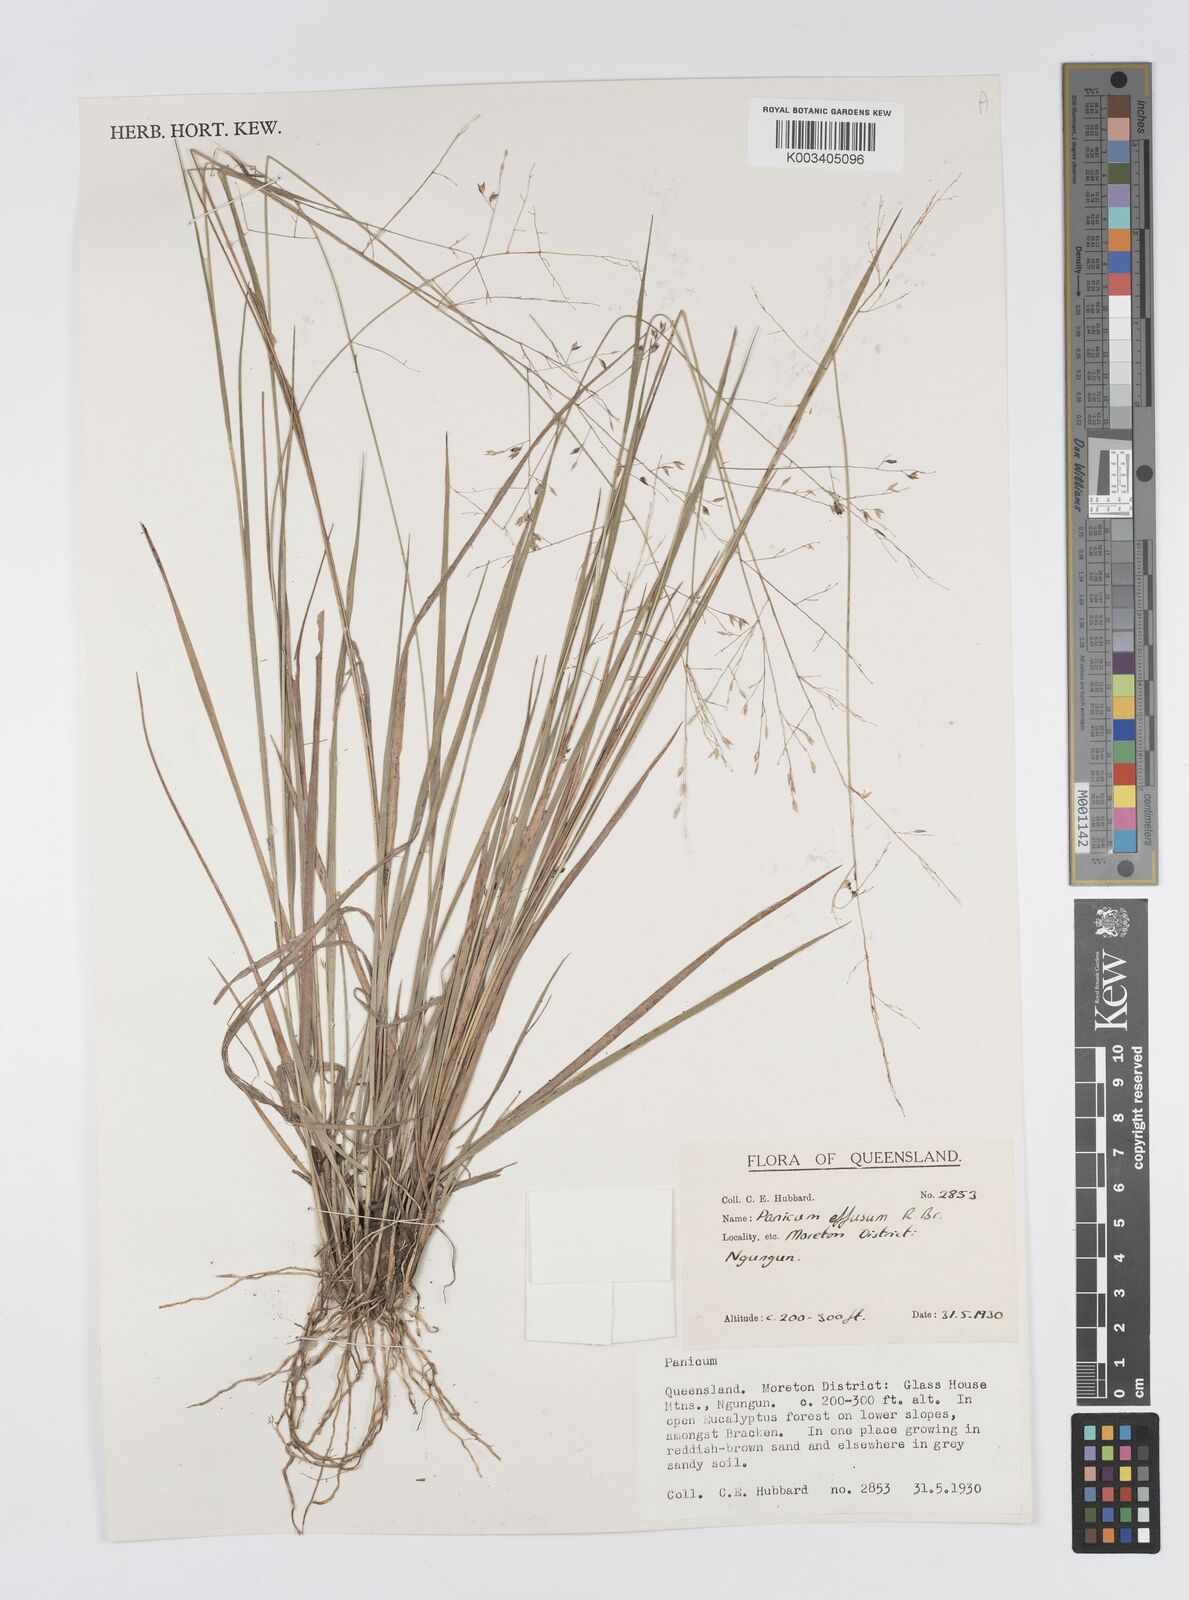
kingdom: Plantae
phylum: Tracheophyta
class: Liliopsida
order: Poales
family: Poaceae
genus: Panicum
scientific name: Panicum effusum
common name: Hairy panic grass
